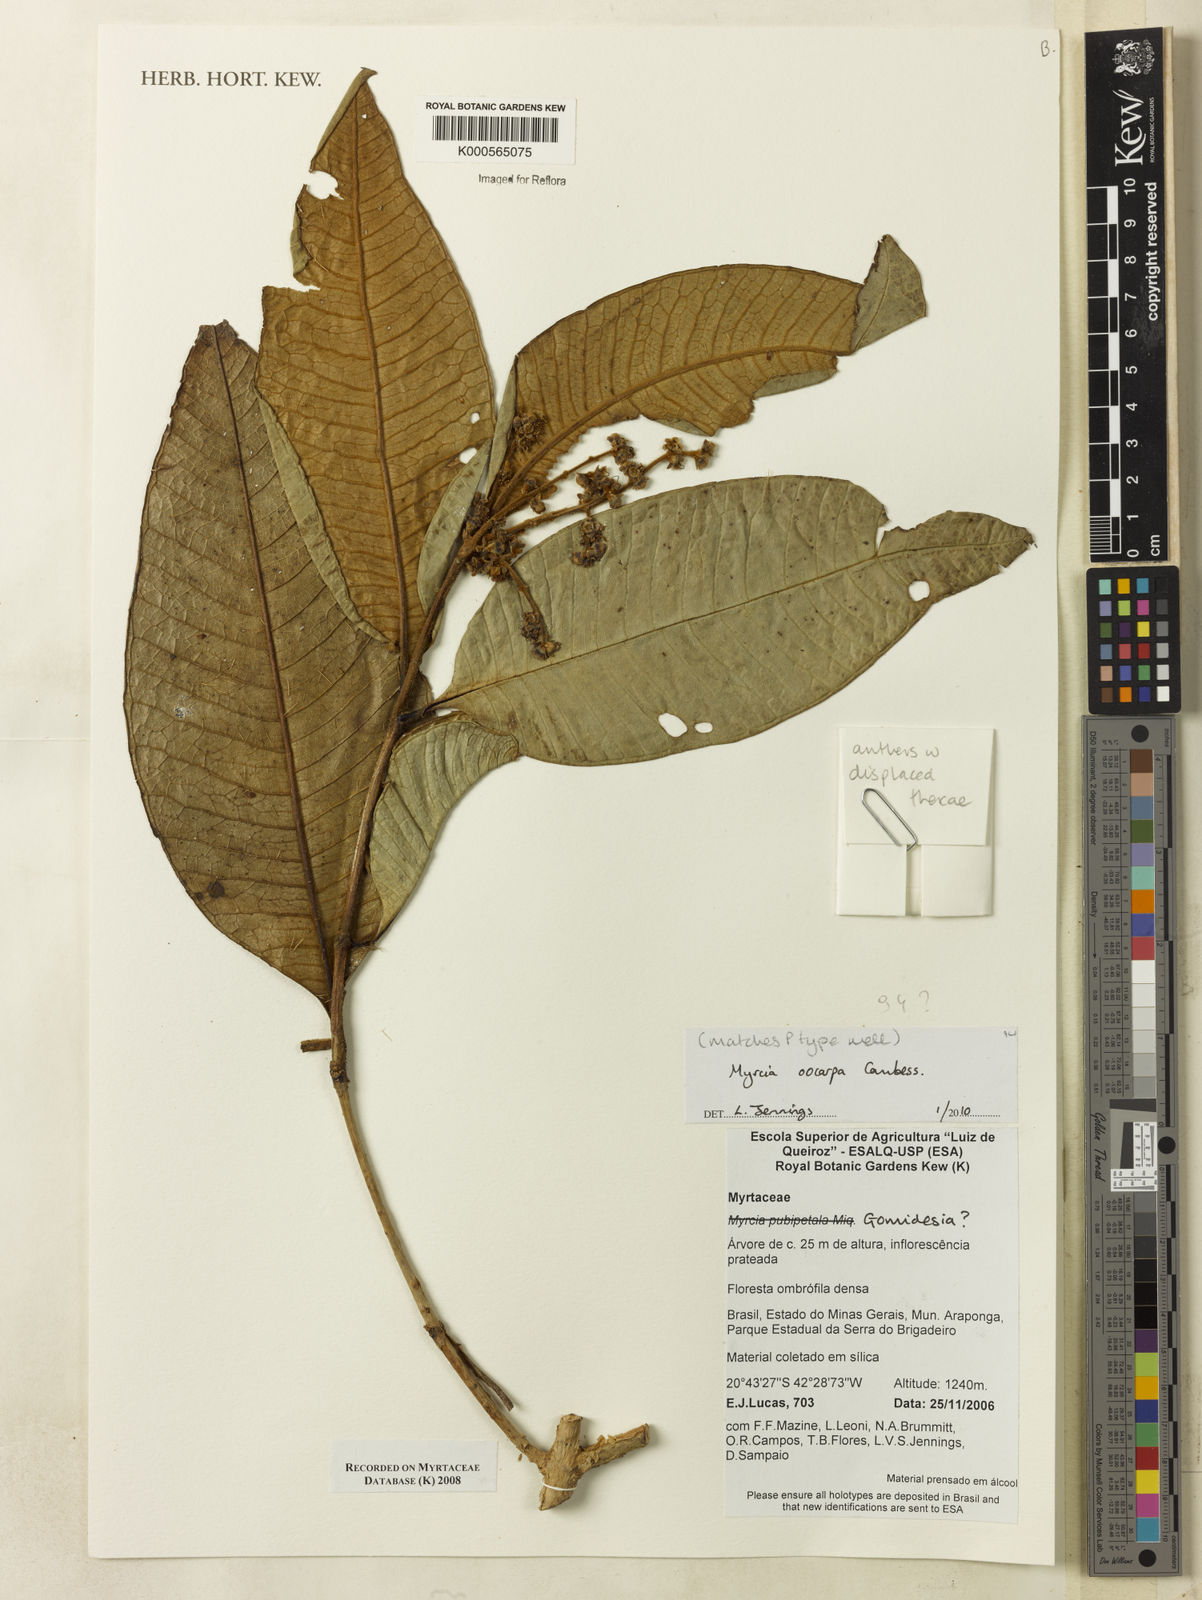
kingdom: Plantae
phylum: Tracheophyta
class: Magnoliopsida
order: Myrtales
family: Myrtaceae
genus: Myrcia
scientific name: Myrcia splendens
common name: Surinam cherry
